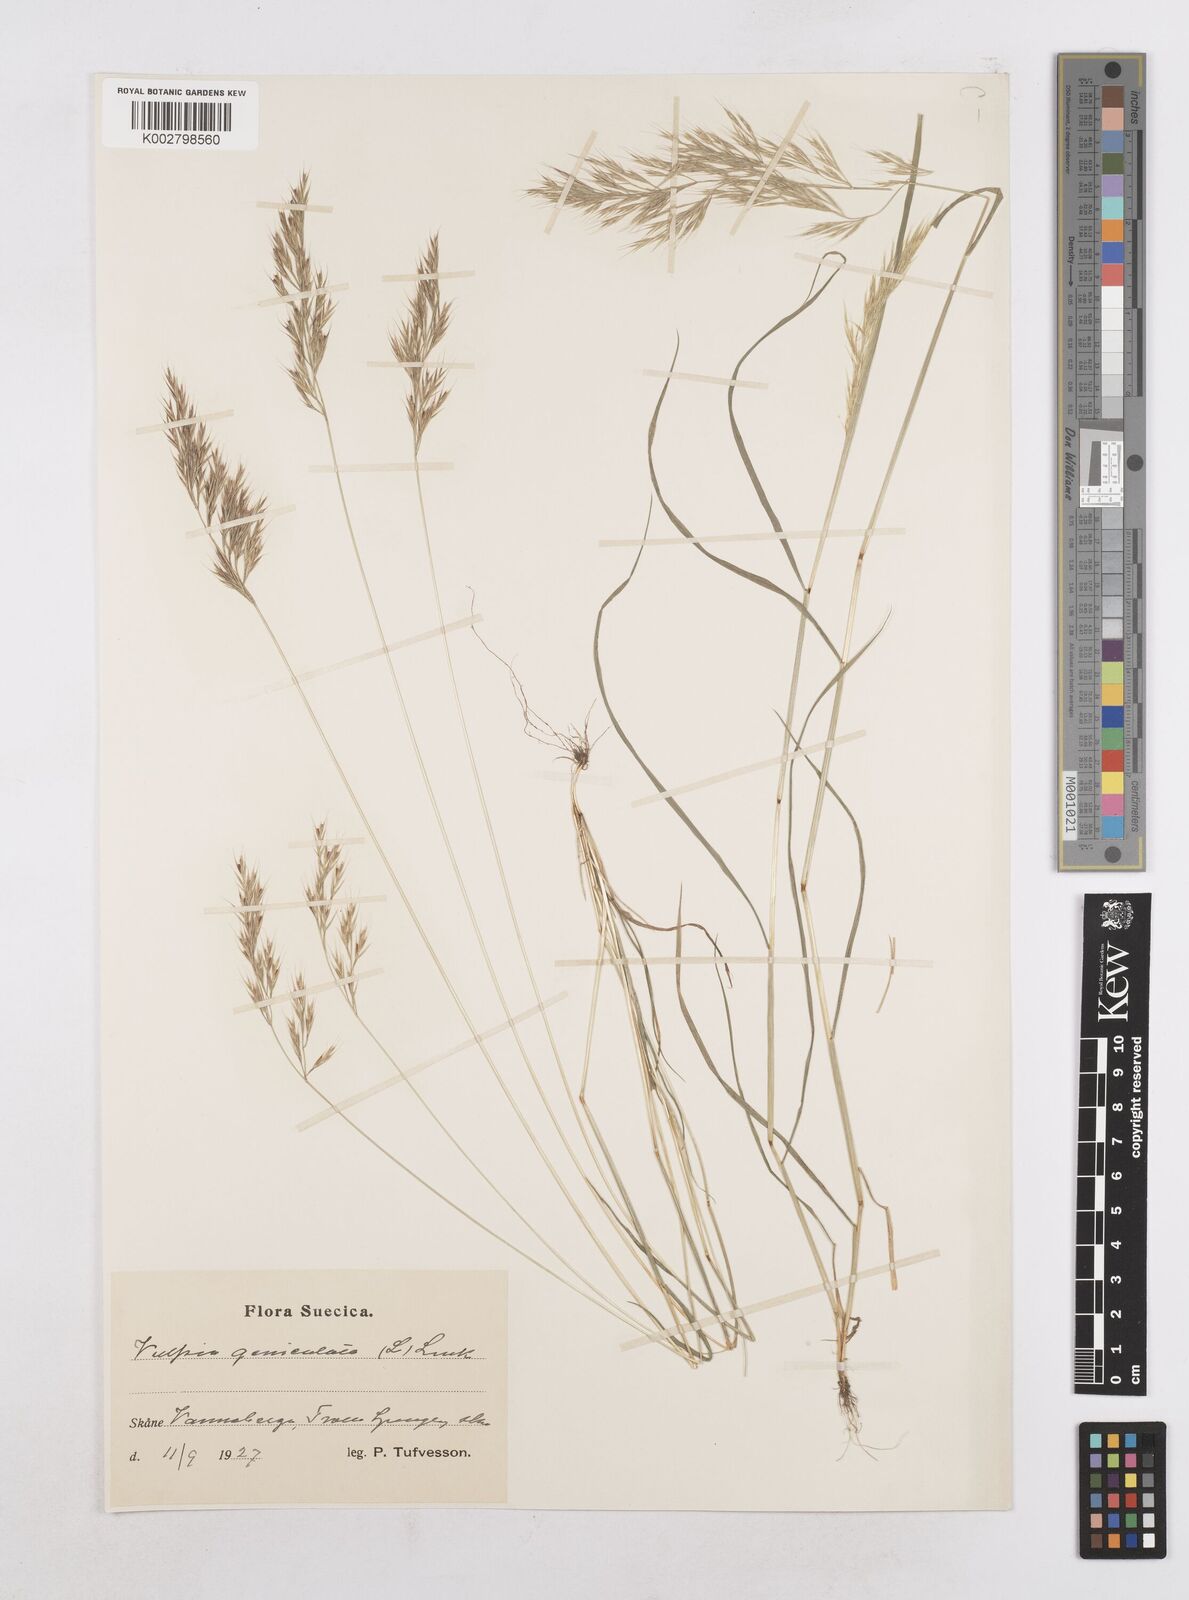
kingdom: Plantae
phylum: Tracheophyta
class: Liliopsida
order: Poales
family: Poaceae
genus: Festuca
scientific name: Festuca geniculata
